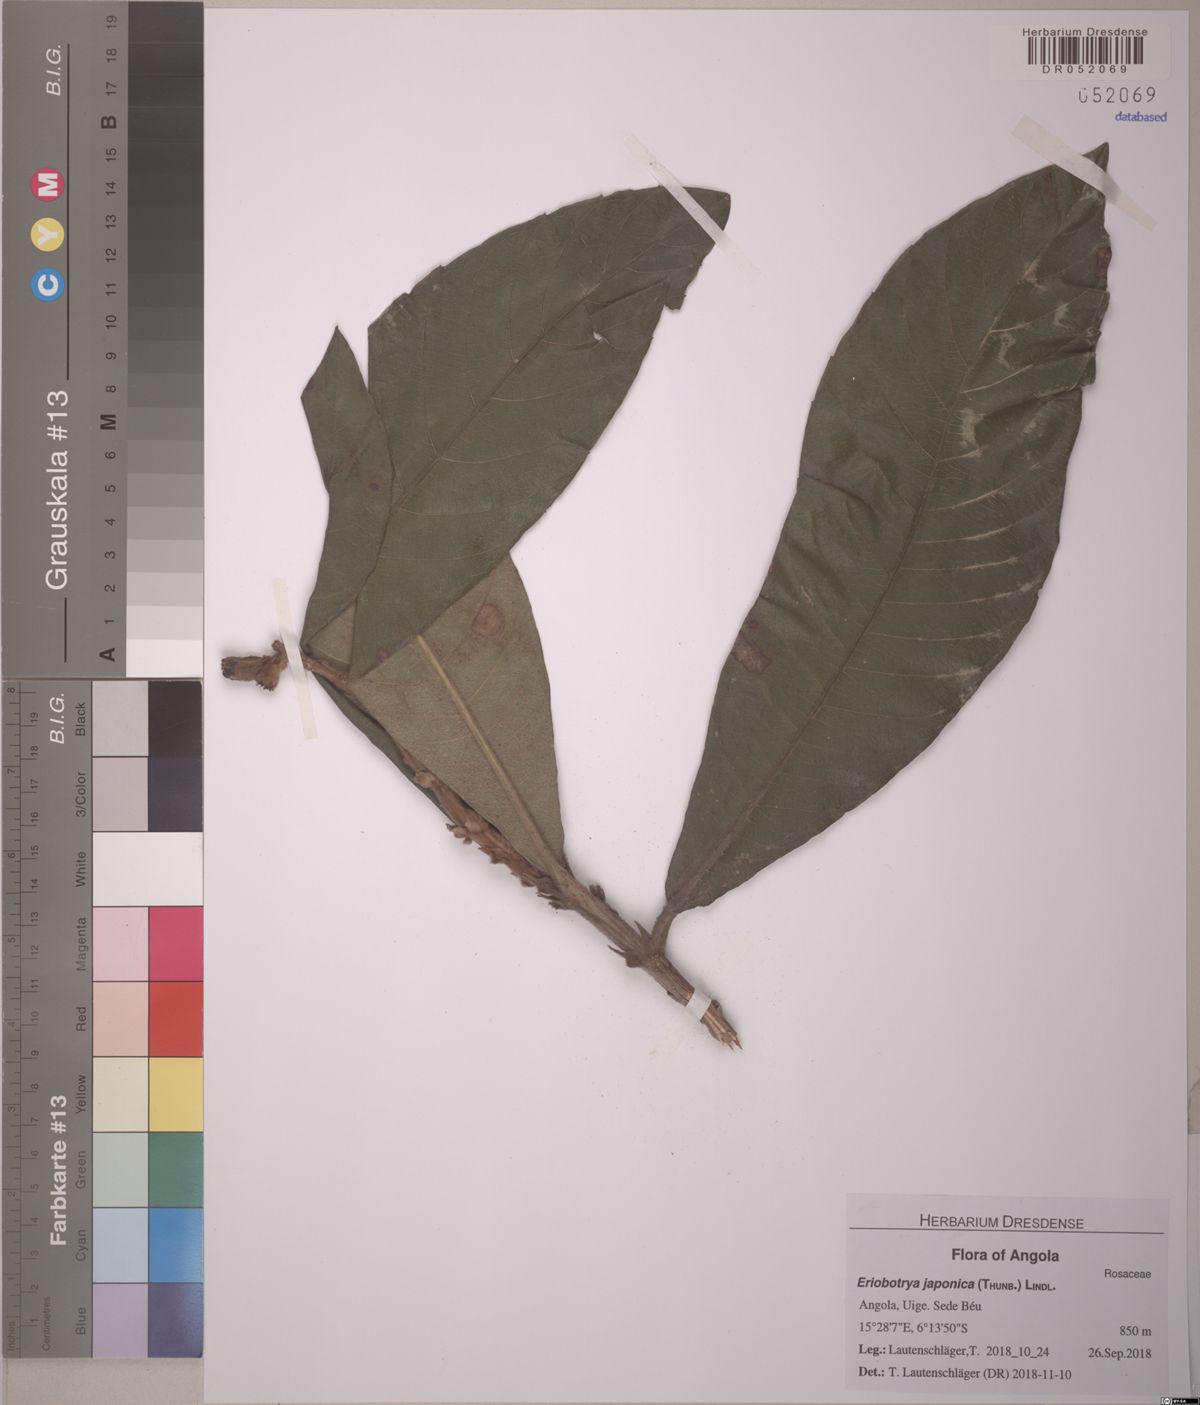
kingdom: Plantae
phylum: Tracheophyta
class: Magnoliopsida
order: Rosales
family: Rosaceae
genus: Rhaphiolepis
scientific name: Rhaphiolepis bibas
